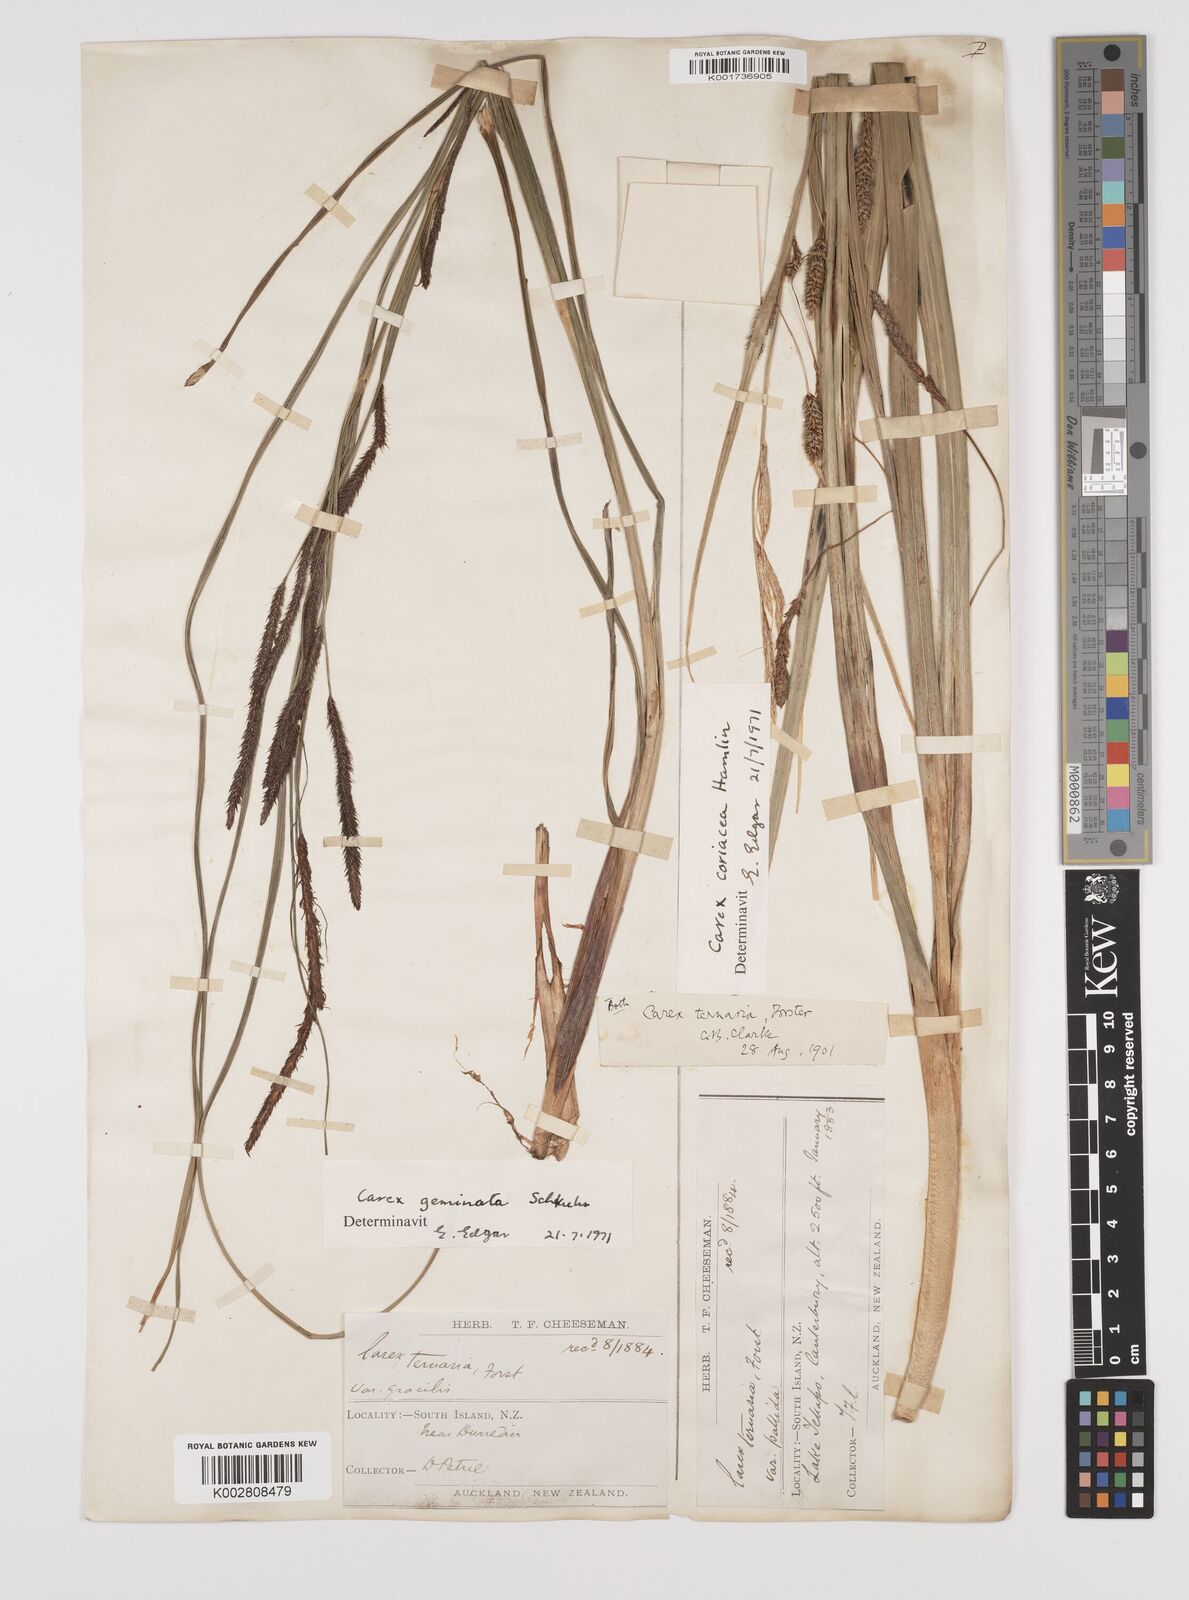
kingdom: Plantae
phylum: Tracheophyta
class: Liliopsida
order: Poales
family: Cyperaceae
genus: Carex
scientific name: Carex geminata
